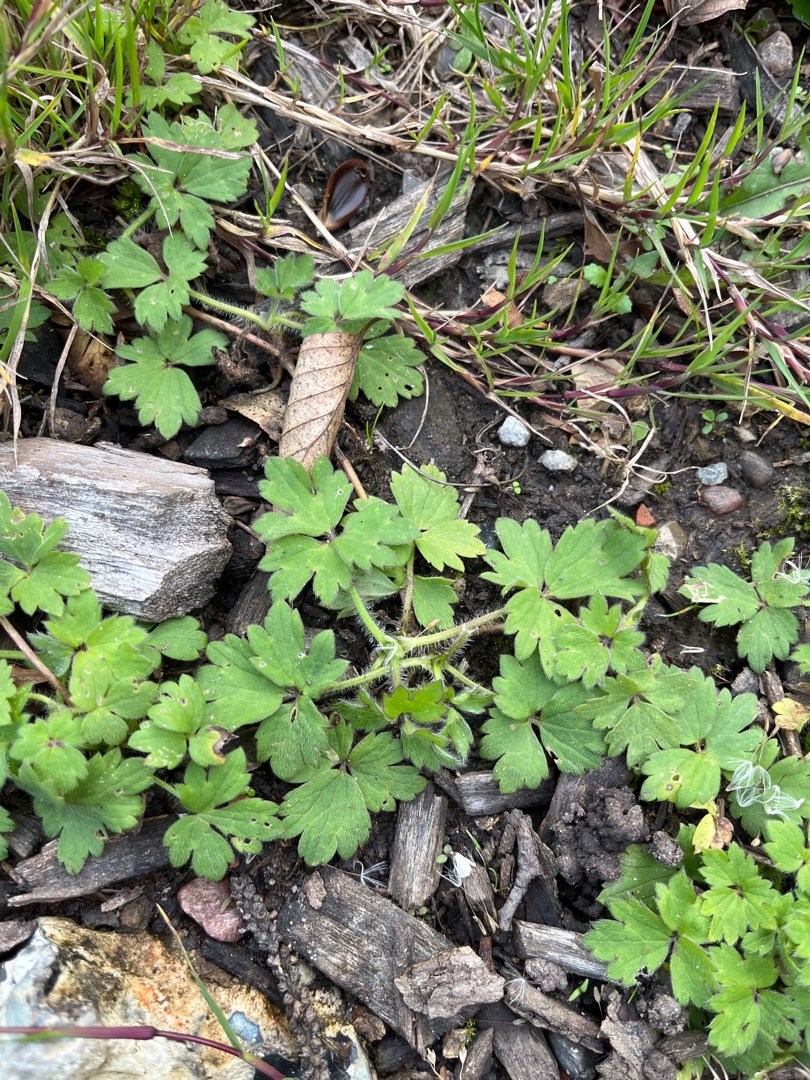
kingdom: Plantae
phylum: Tracheophyta
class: Magnoliopsida
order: Ranunculales
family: Ranunculaceae
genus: Ranunculus
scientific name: Ranunculus repens
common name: Lav ranunkel
